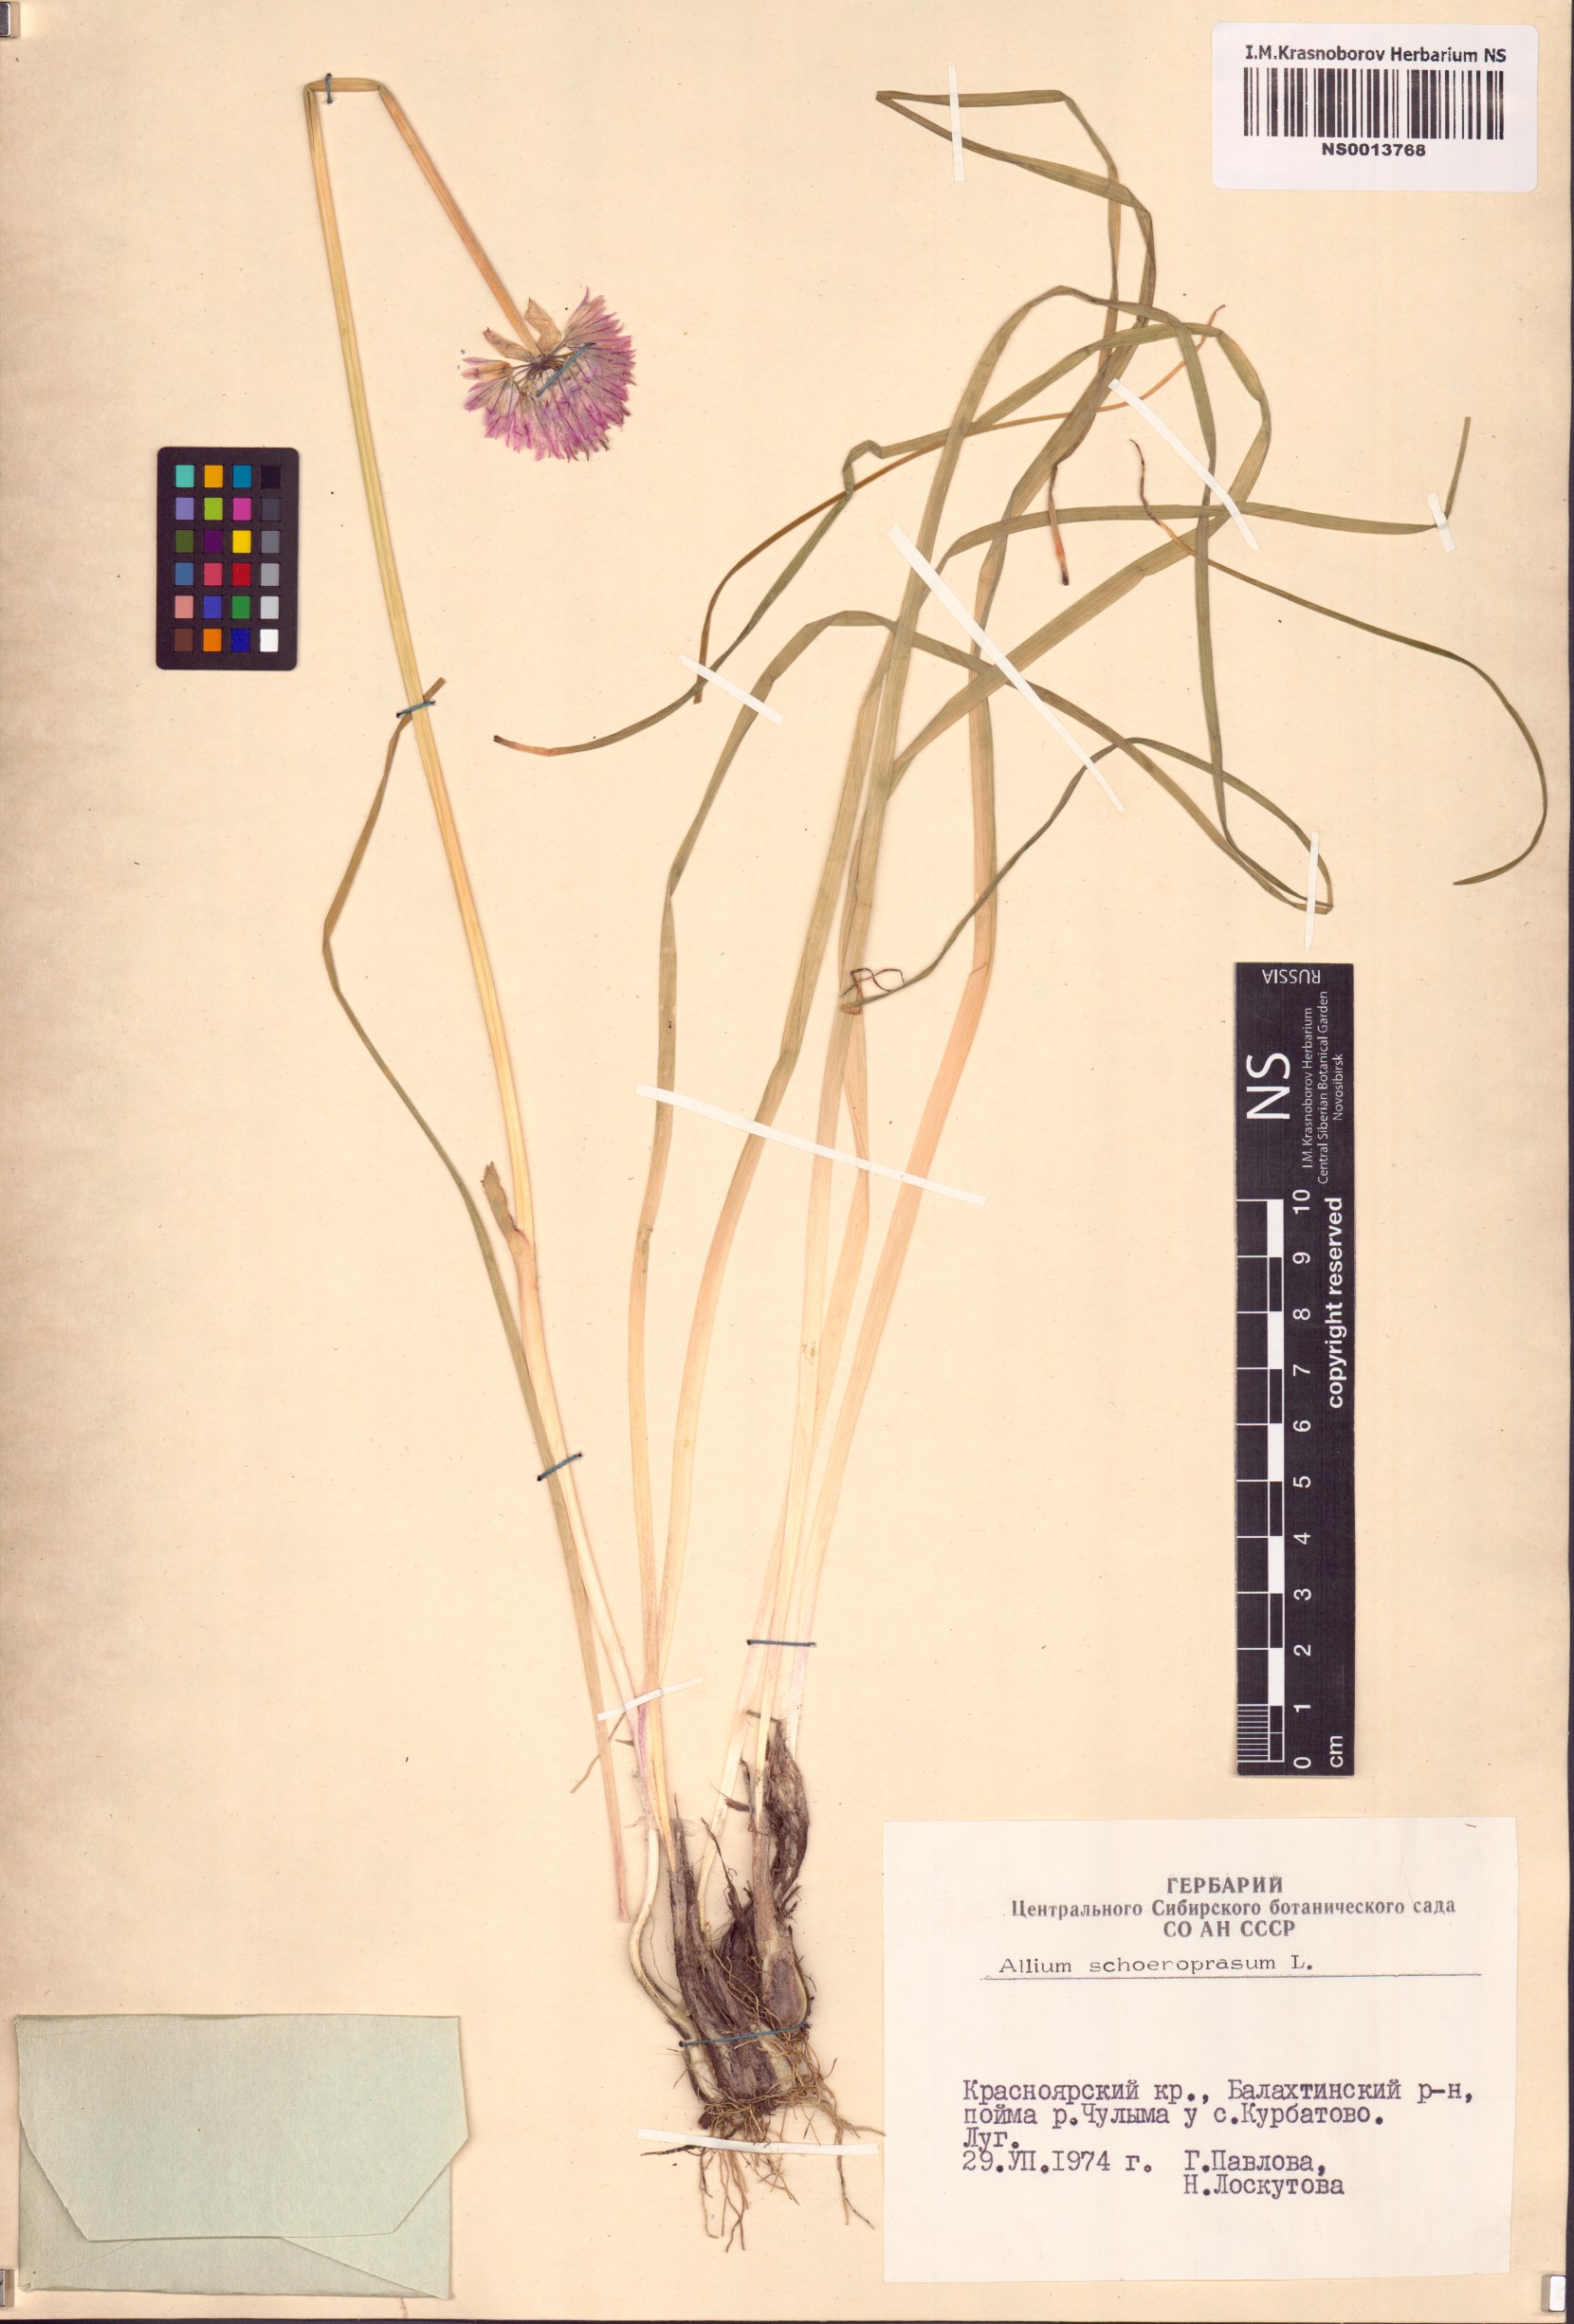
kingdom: Plantae
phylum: Tracheophyta
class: Liliopsida
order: Asparagales
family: Amaryllidaceae
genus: Allium
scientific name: Allium schoenoprasum
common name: Chives
